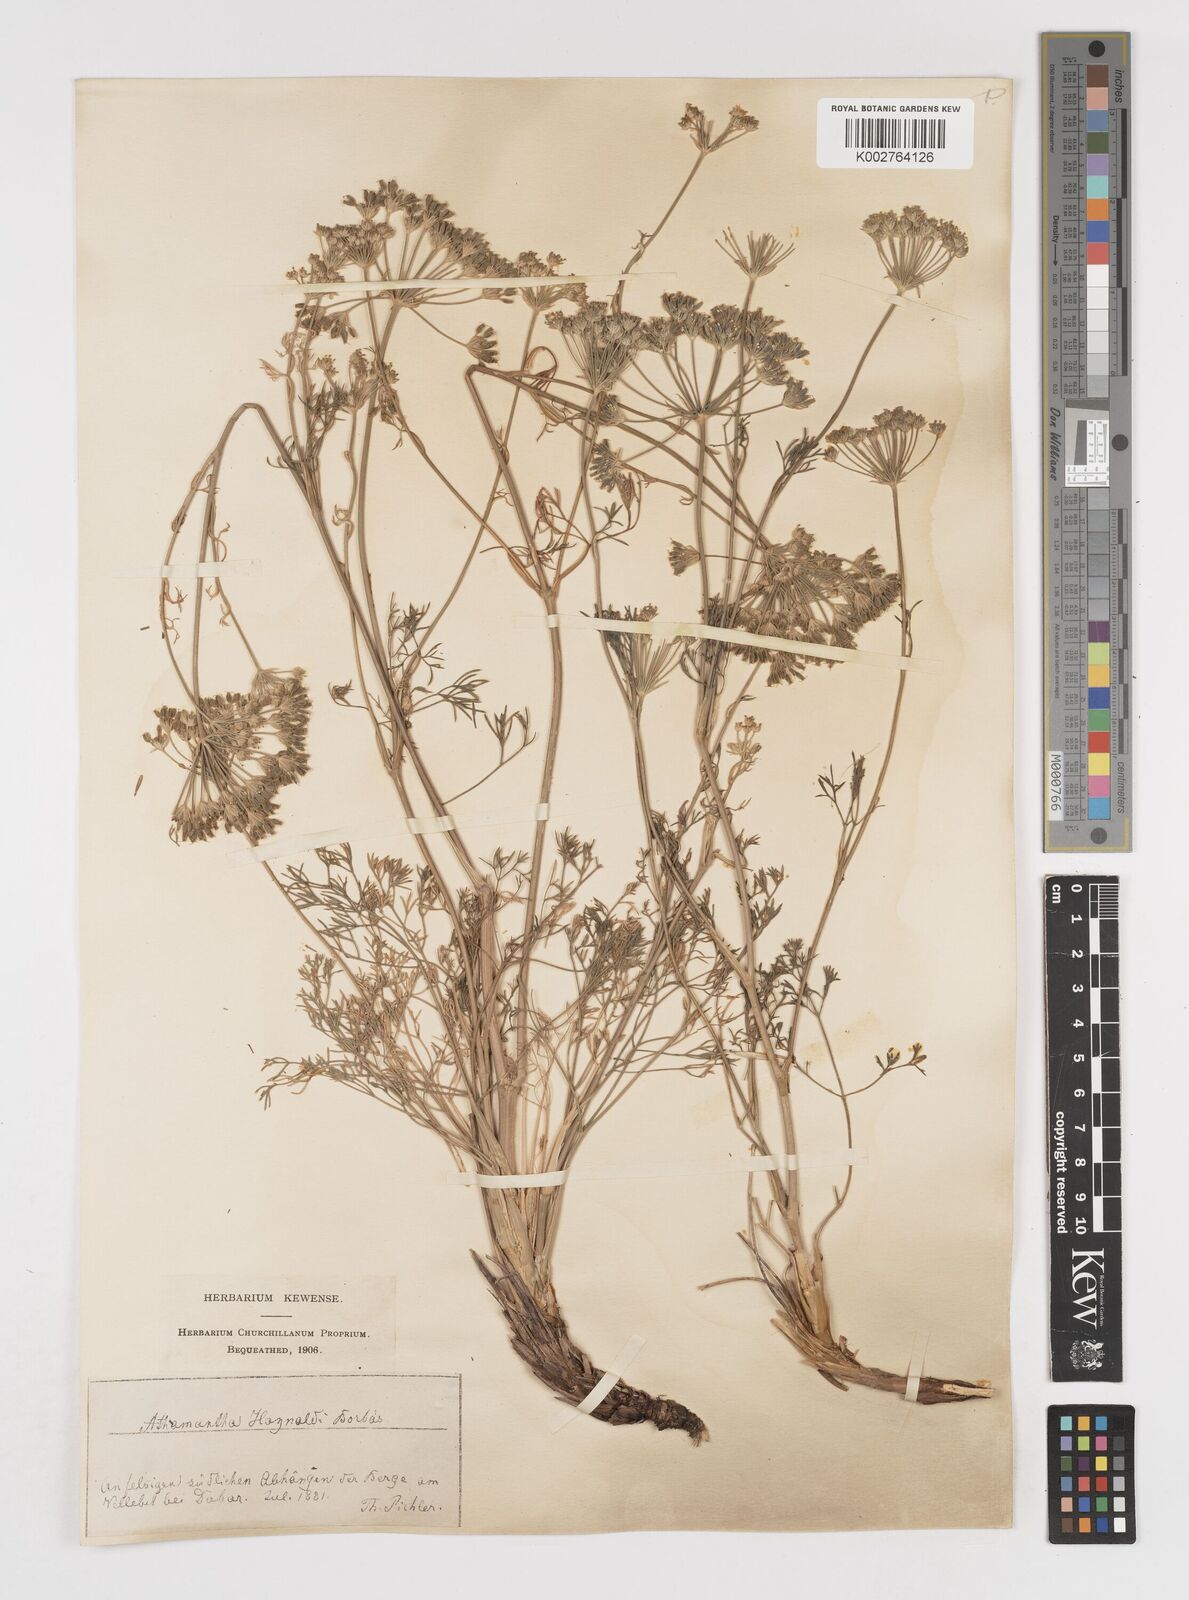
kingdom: Plantae
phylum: Tracheophyta
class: Magnoliopsida
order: Apiales
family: Apiaceae
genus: Athamanta
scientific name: Athamanta turbith
